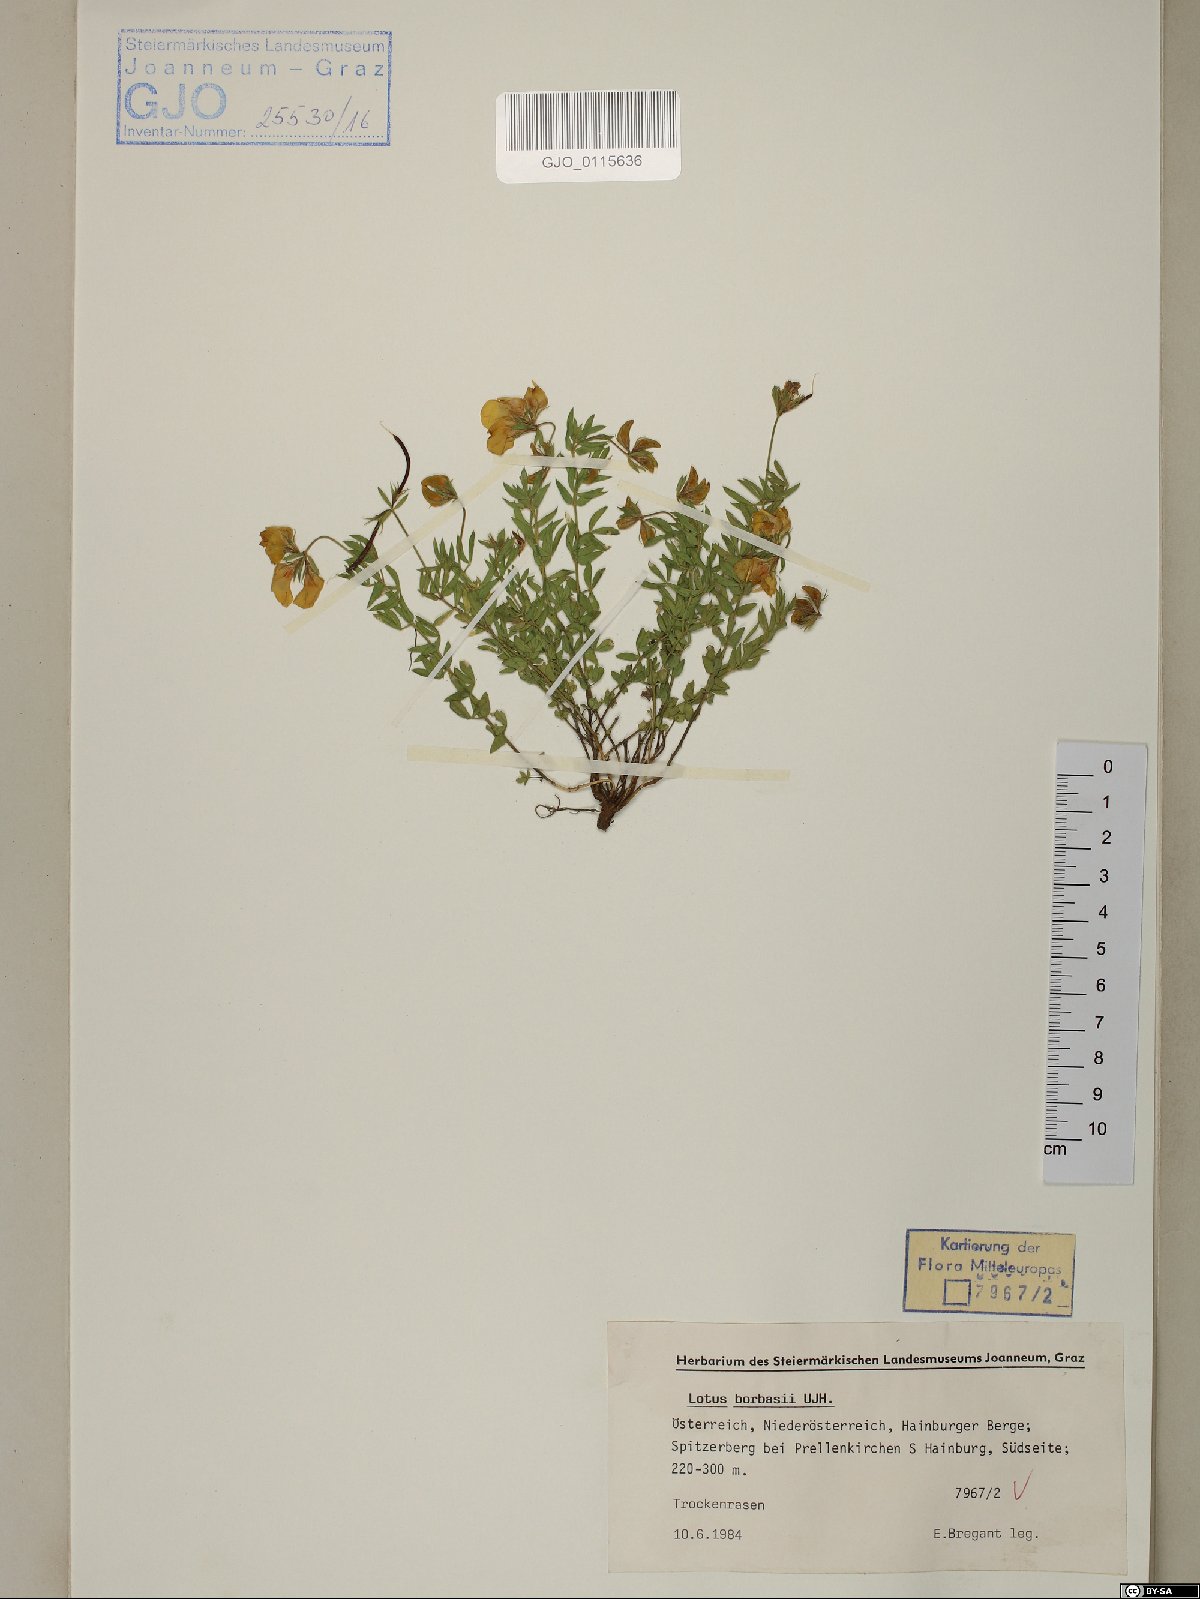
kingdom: Plantae
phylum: Tracheophyta
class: Magnoliopsida
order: Fabales
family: Fabaceae
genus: Lotus
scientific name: Lotus borbasii
